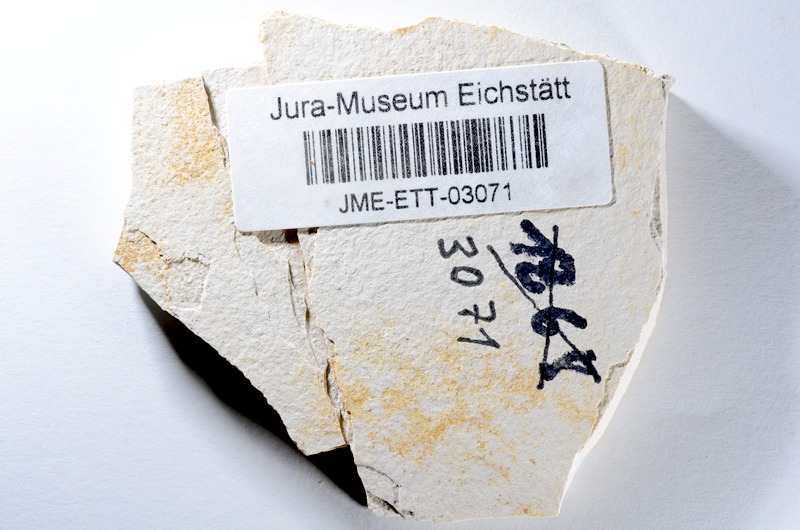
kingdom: Animalia
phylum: Chordata
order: Salmoniformes
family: Orthogonikleithridae
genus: Orthogonikleithrus
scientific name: Orthogonikleithrus hoelli
